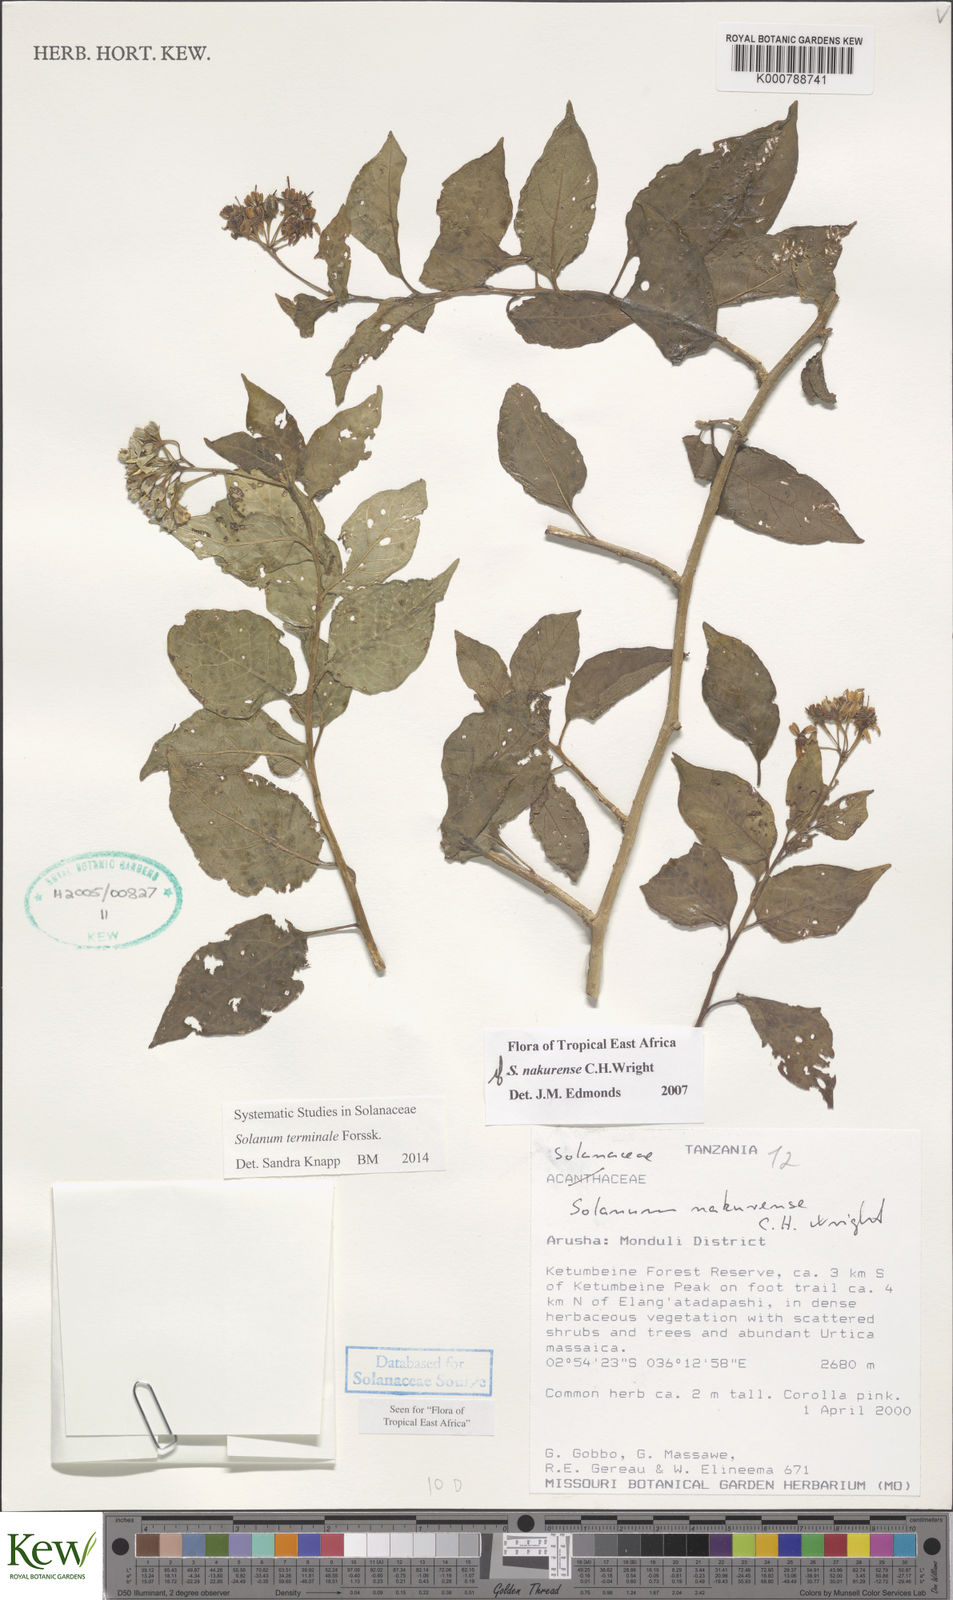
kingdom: Plantae
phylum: Tracheophyta
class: Magnoliopsida
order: Solanales
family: Solanaceae
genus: Solanum
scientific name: Solanum terminale
